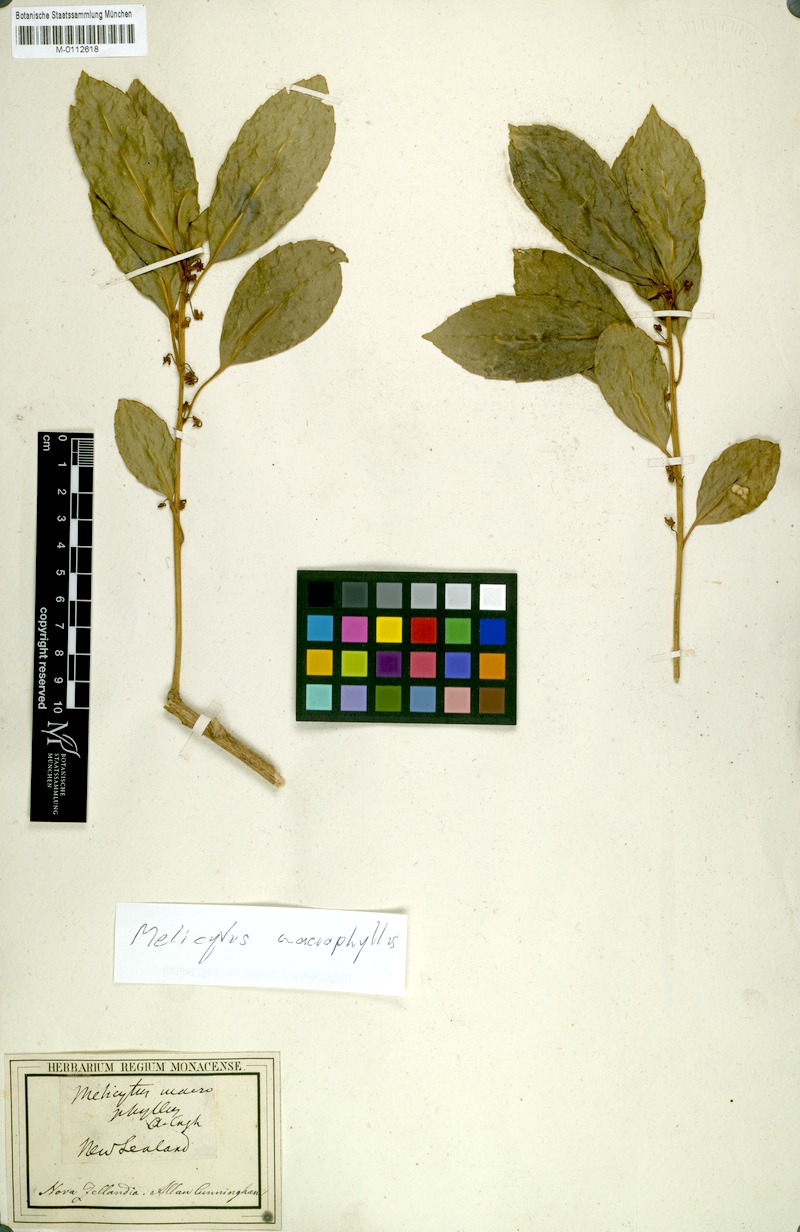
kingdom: Plantae
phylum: Tracheophyta
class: Magnoliopsida
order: Malpighiales
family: Violaceae
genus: Melicytus
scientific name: Melicytus macrophyllus
